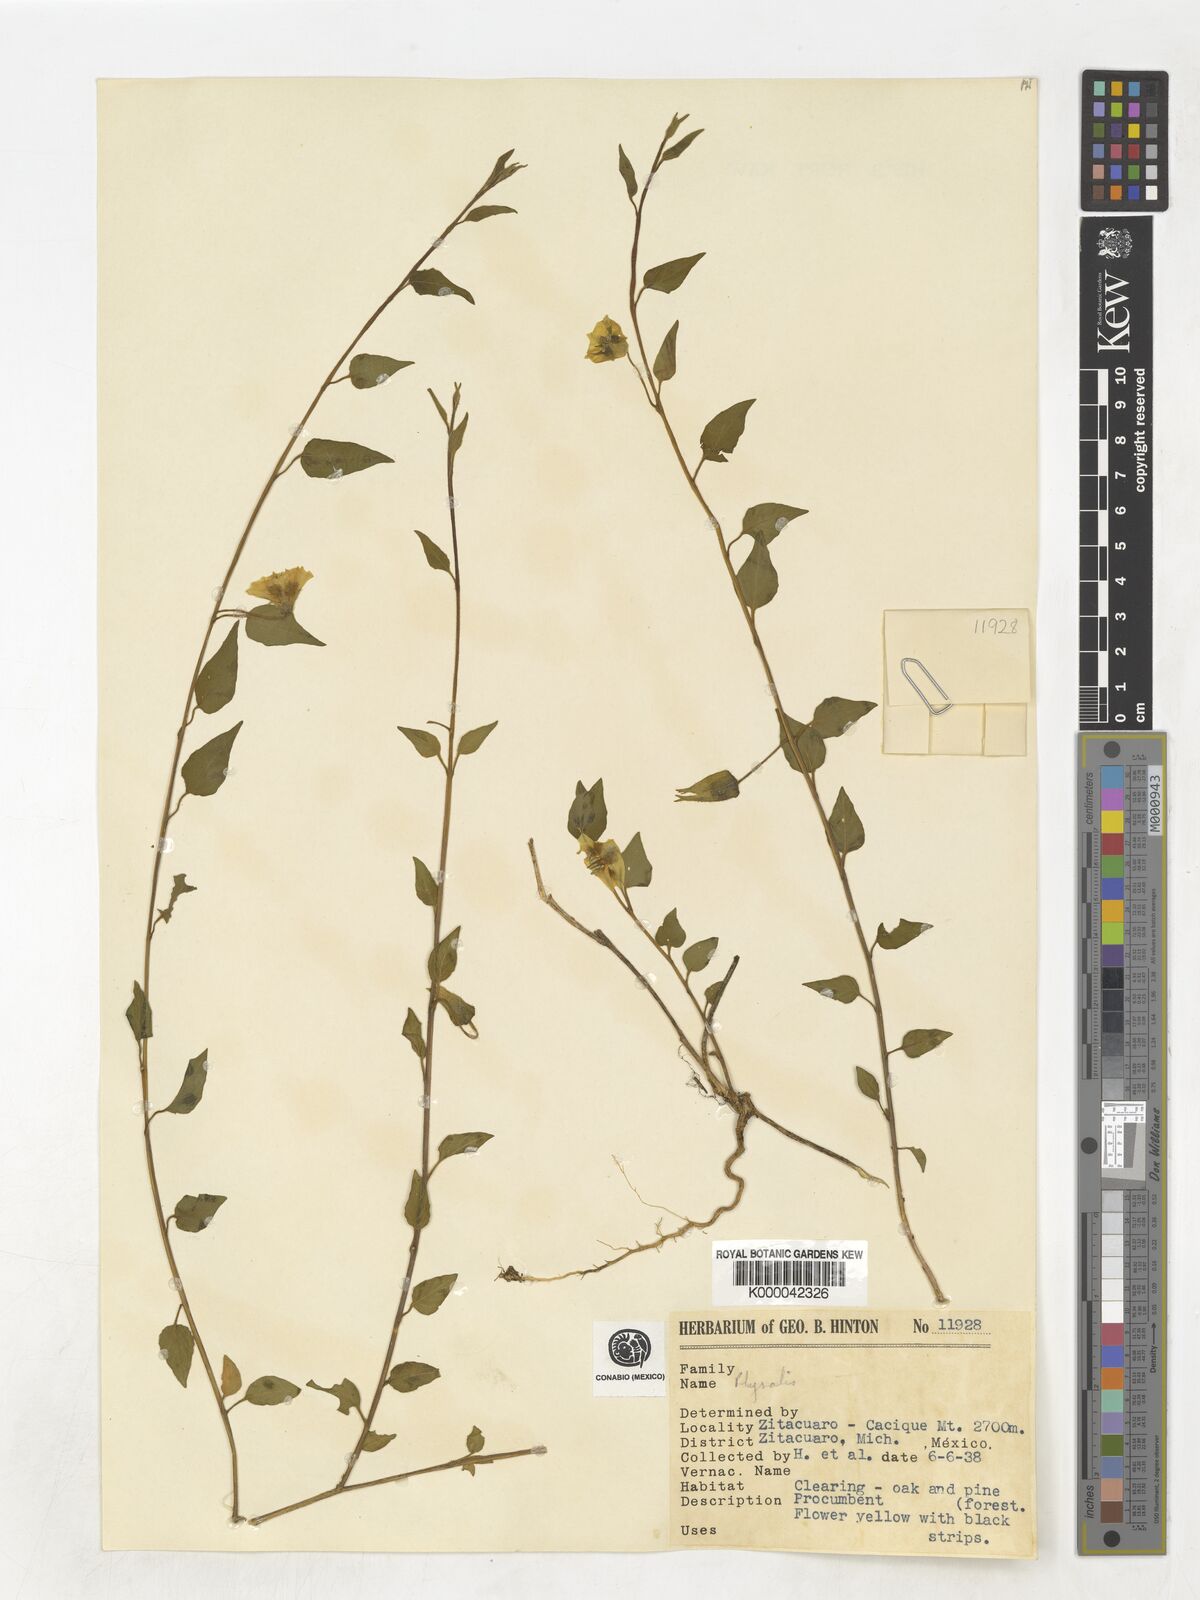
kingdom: Plantae
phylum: Tracheophyta
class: Magnoliopsida
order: Solanales
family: Solanaceae
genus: Physalis
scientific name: Physalis
